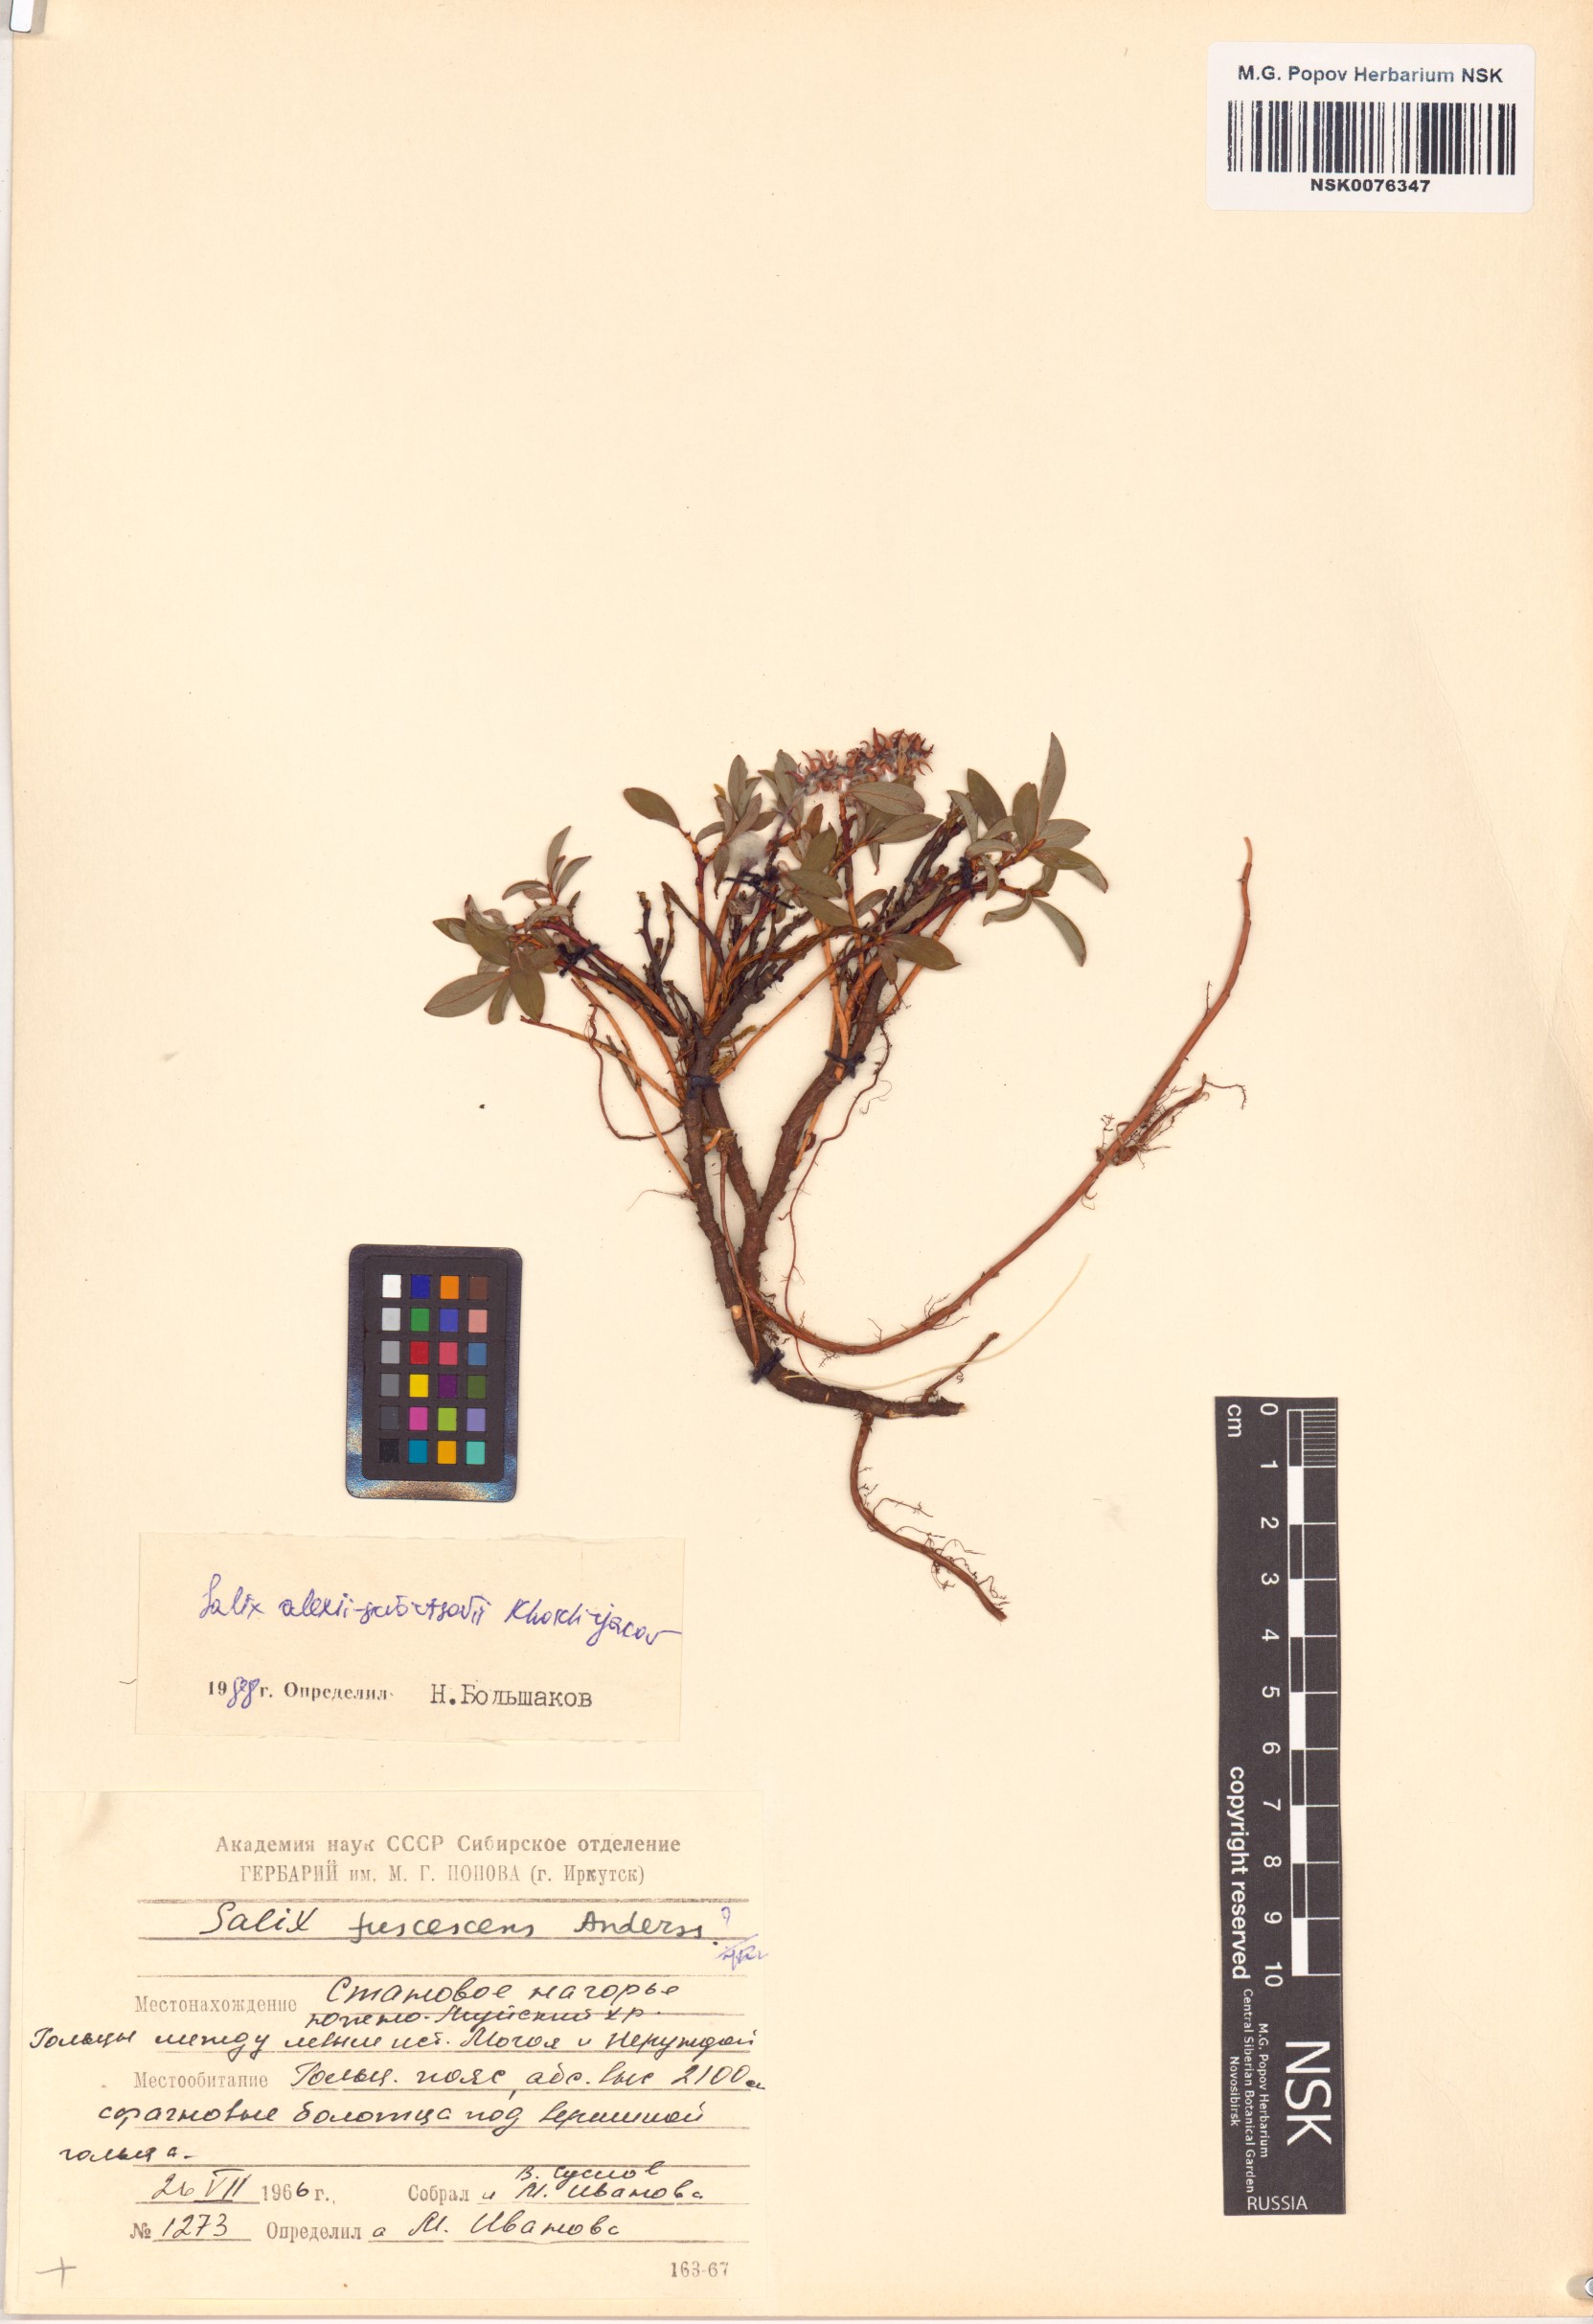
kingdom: Plantae
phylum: Tracheophyta
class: Magnoliopsida
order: Malpighiales
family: Salicaceae
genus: Salix
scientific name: Salix alexii-skvortzovii
